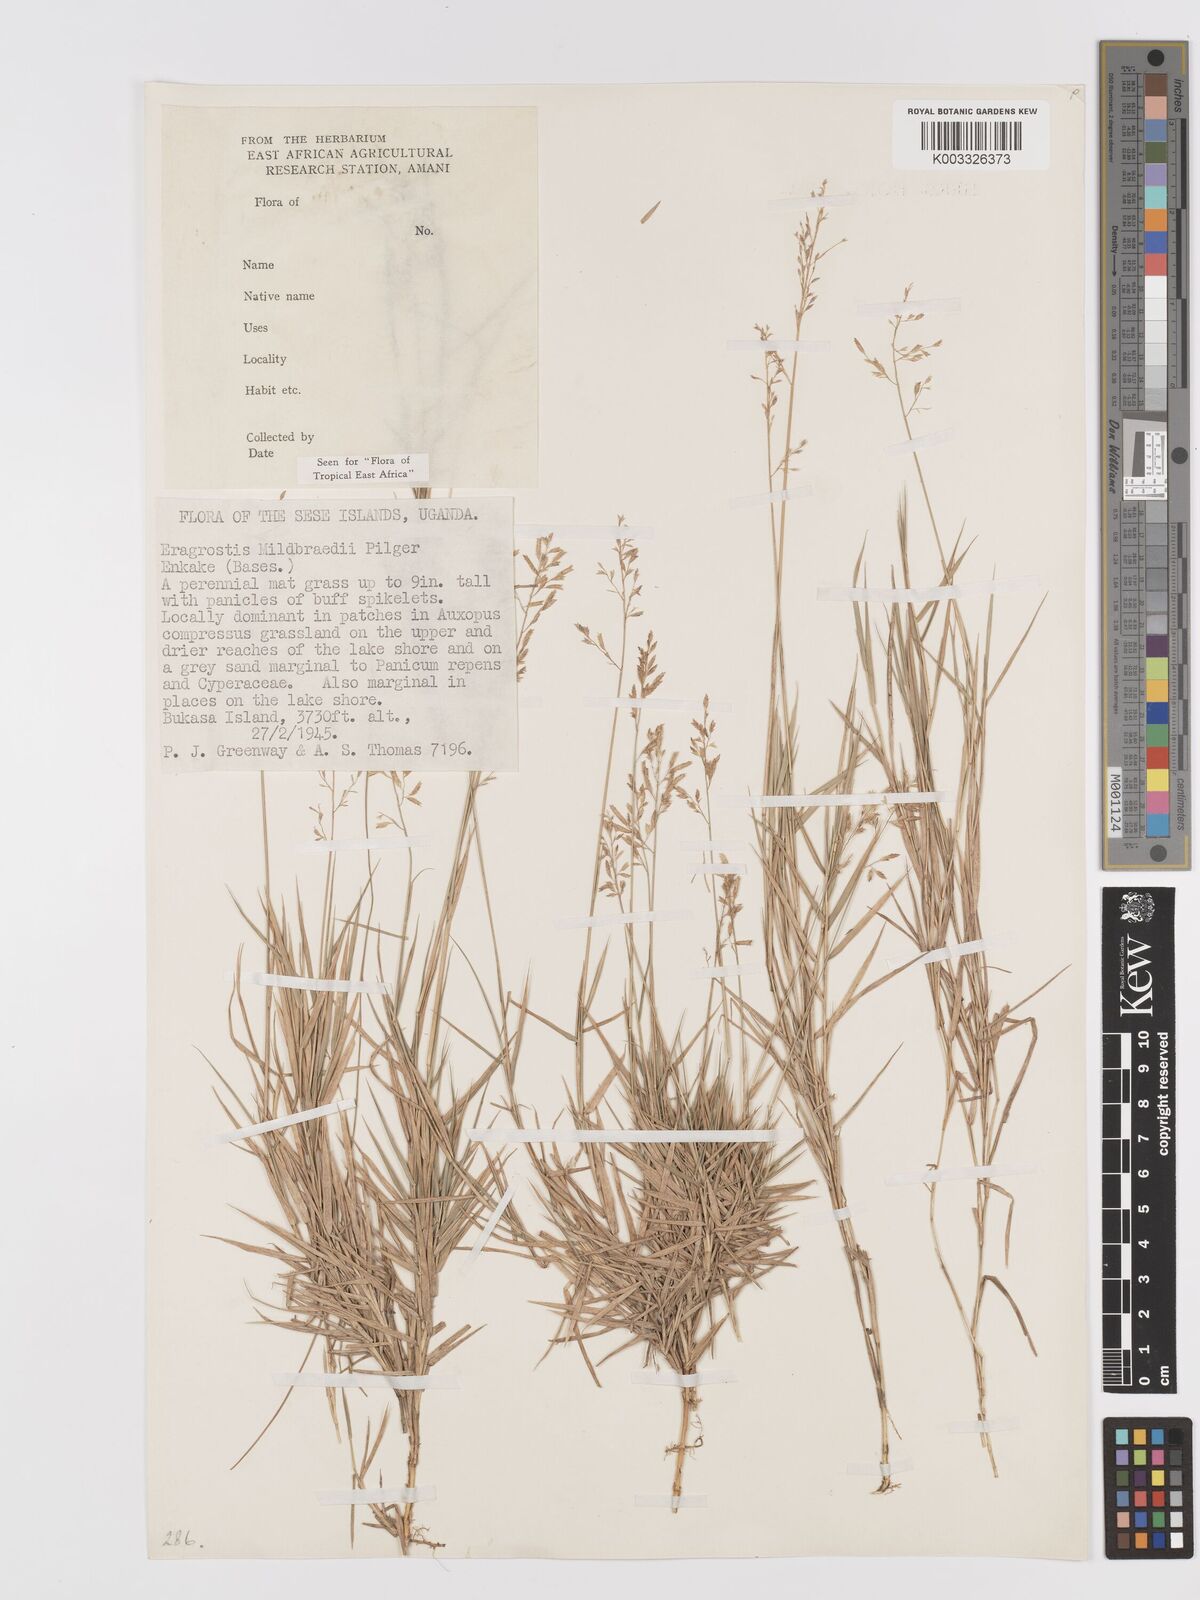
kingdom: Plantae
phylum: Tracheophyta
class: Liliopsida
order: Poales
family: Poaceae
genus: Eragrostis
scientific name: Eragrostis mildbraedii
